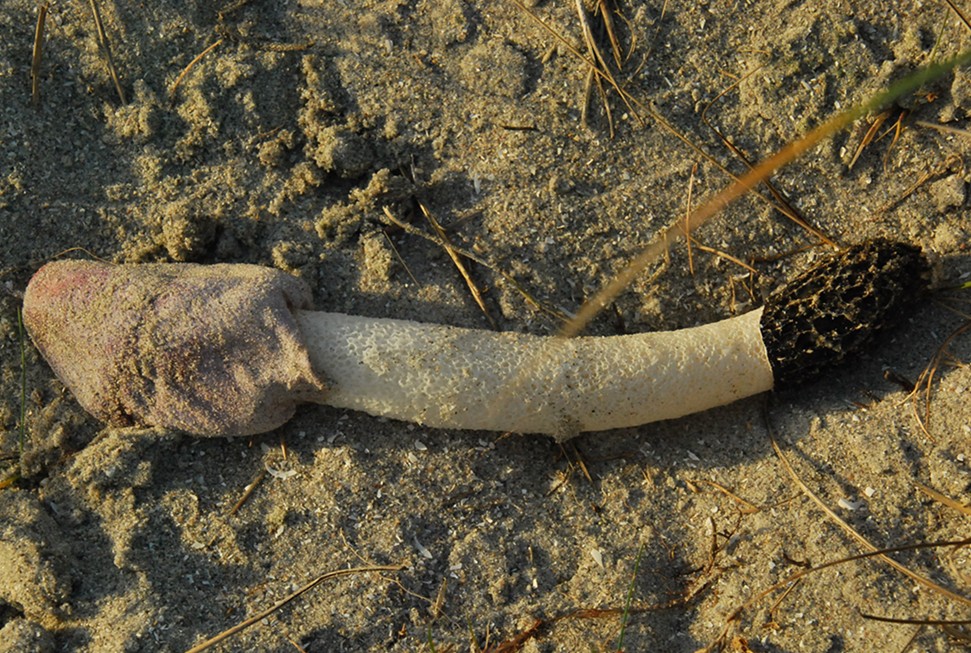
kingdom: Fungi
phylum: Basidiomycota
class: Agaricomycetes
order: Phallales
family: Phallaceae
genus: Phallus
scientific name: Phallus hadriani
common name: sand-stinksvamp
